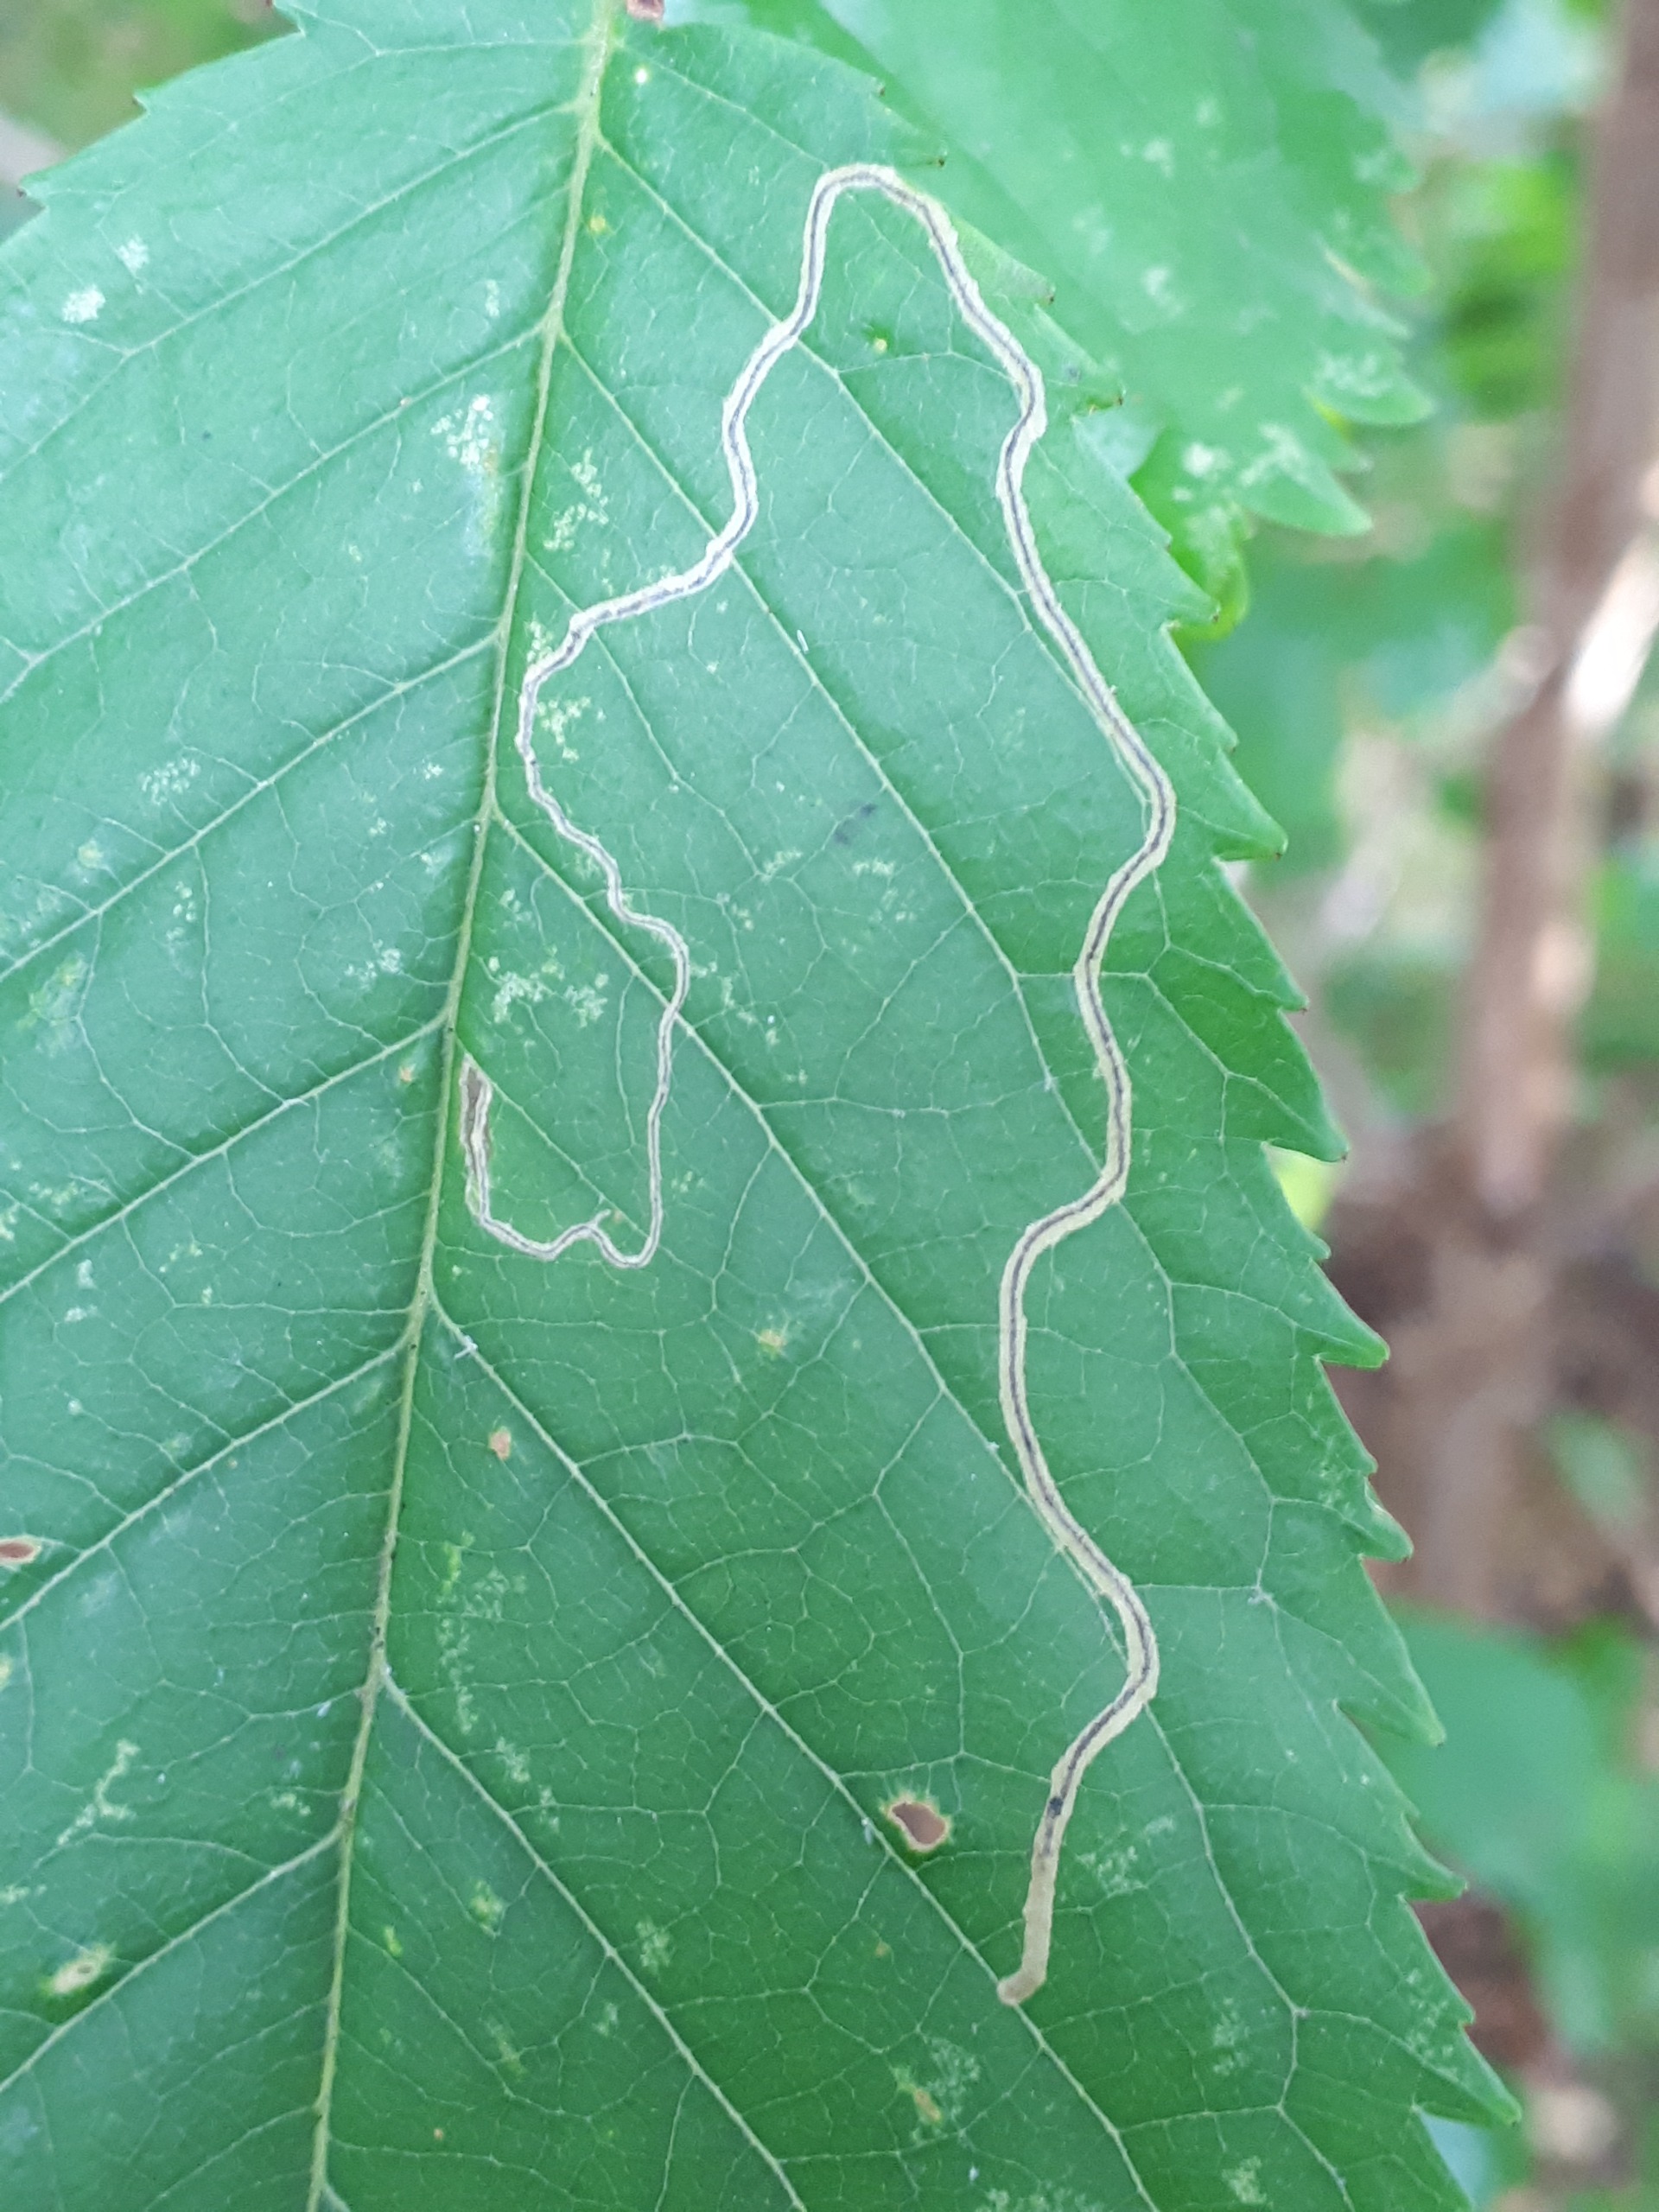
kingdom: Animalia
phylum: Arthropoda
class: Insecta
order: Lepidoptera
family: Lyonetiidae
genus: Lyonetia
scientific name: Lyonetia clerkella
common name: Clerks minérmøl
